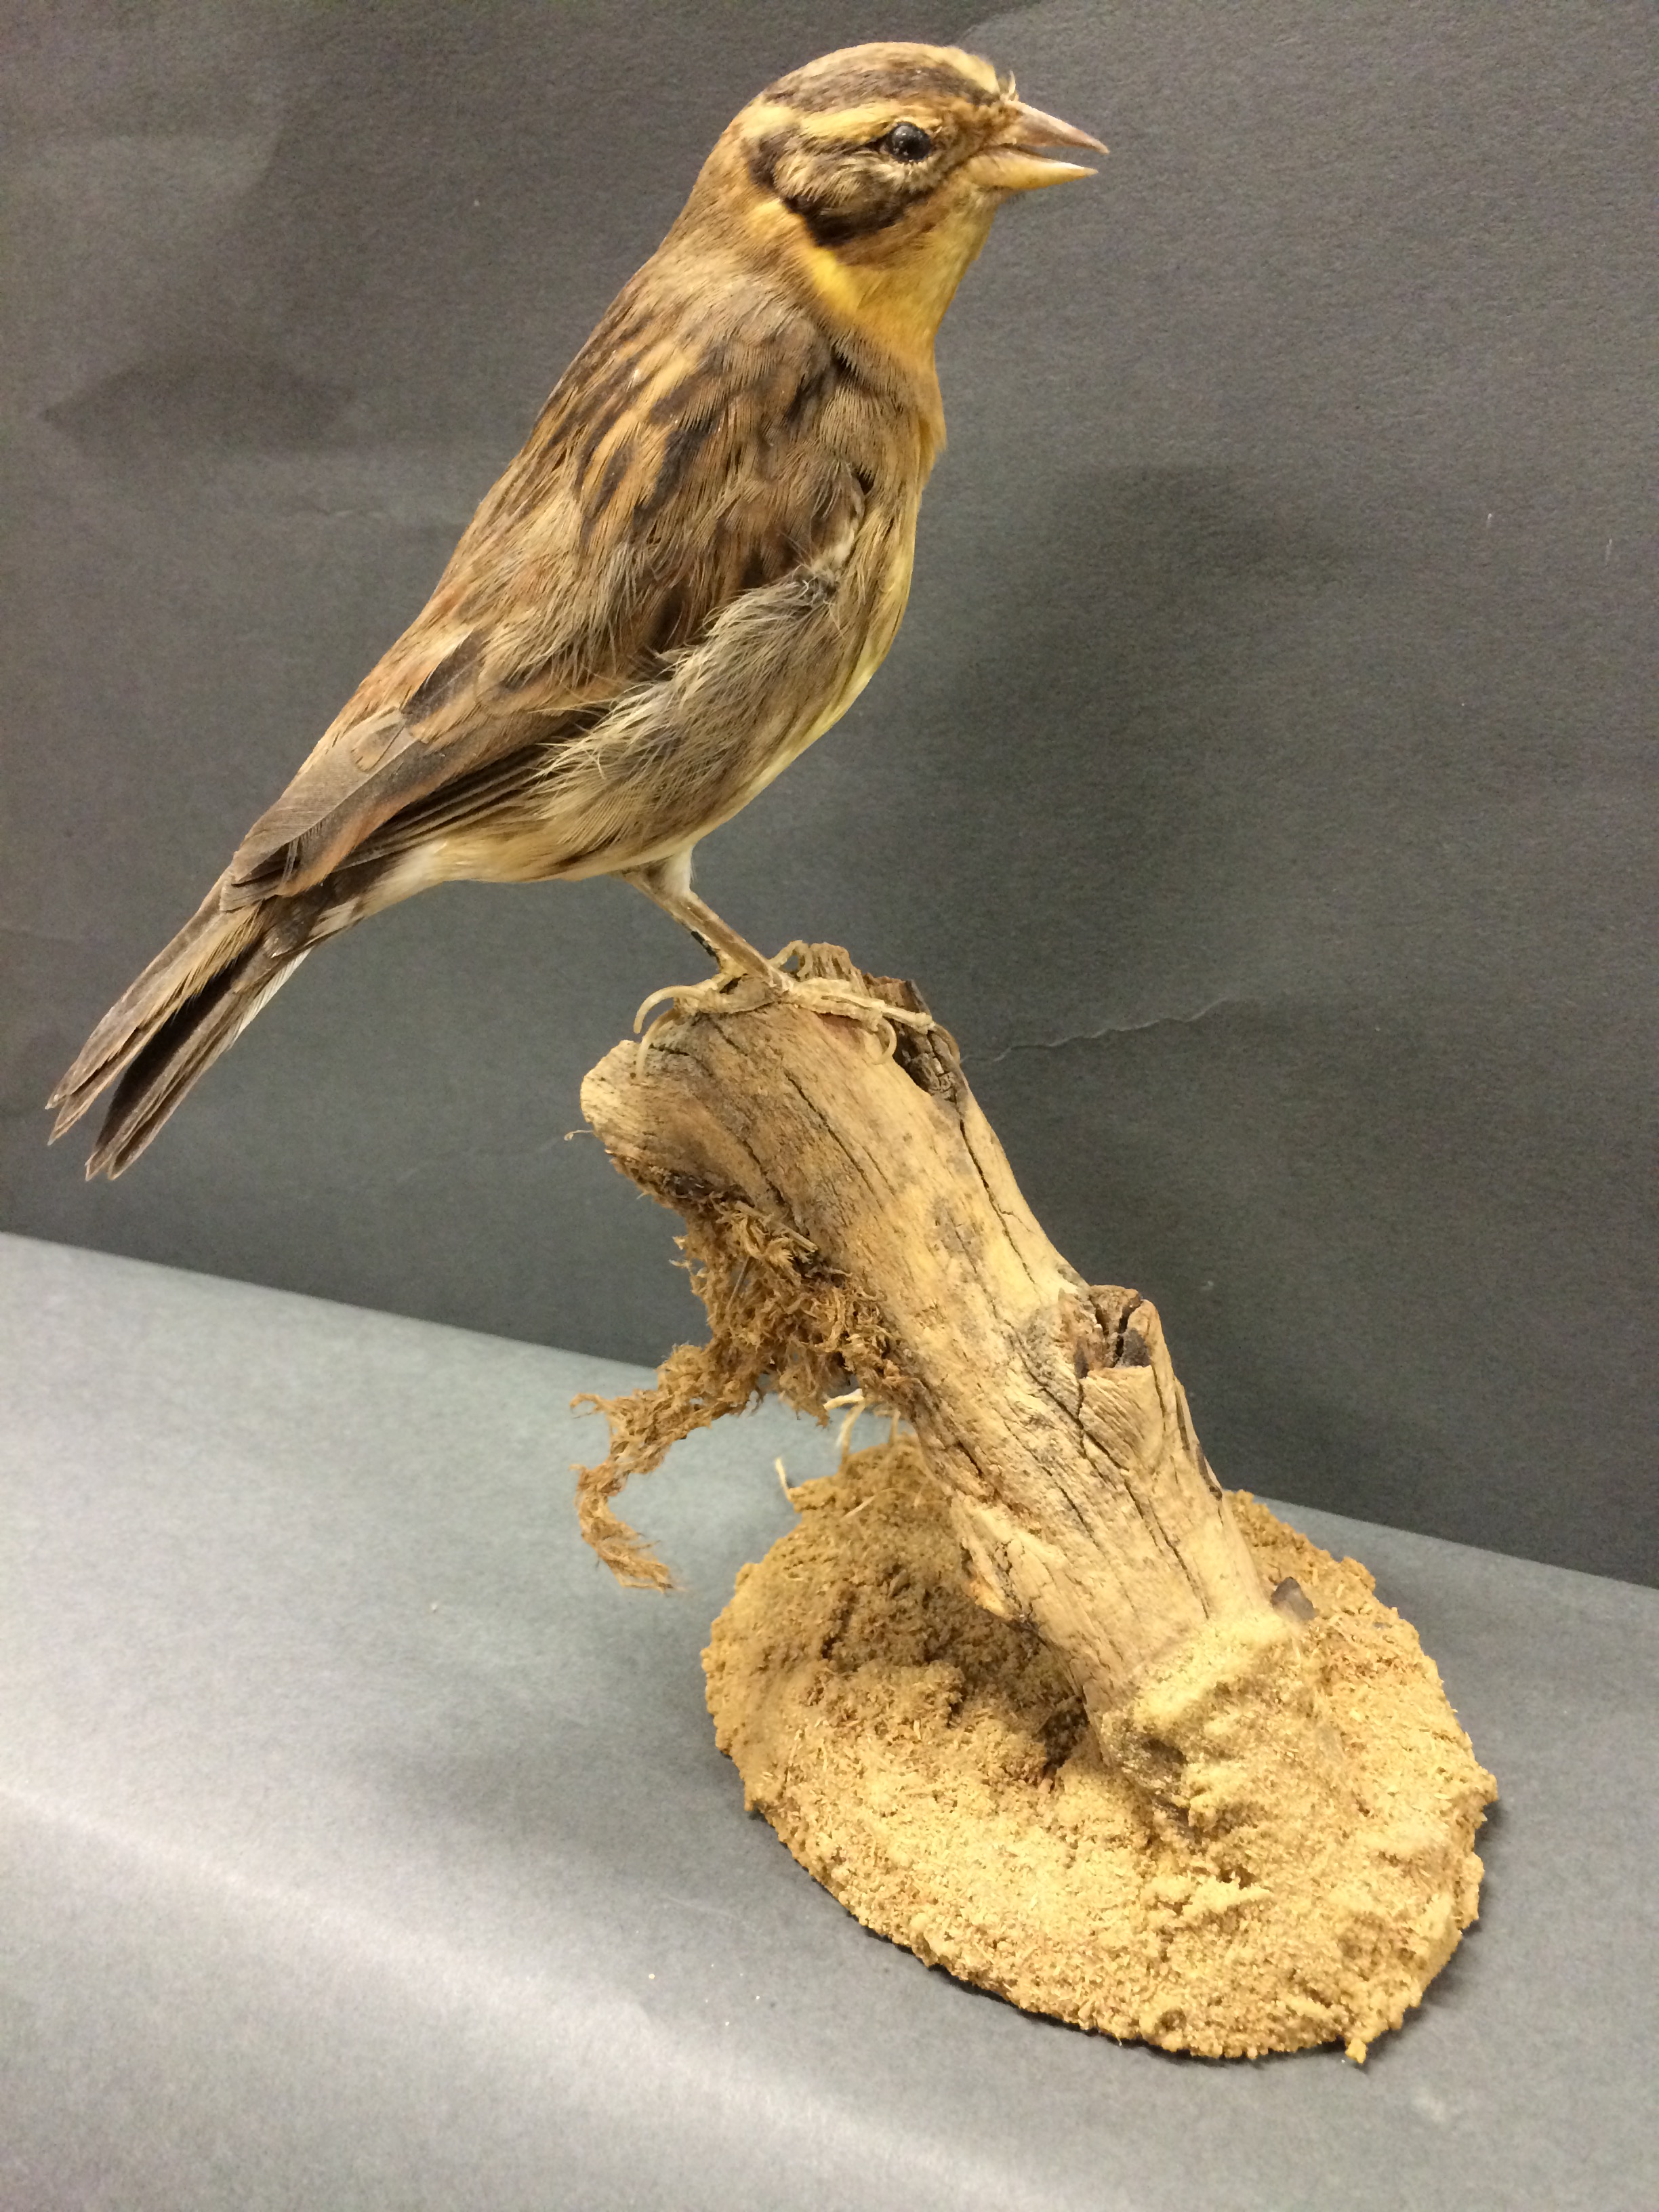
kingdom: Animalia
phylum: Chordata
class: Aves
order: Passeriformes
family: Emberizidae
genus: Emberiza
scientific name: Emberiza aureola
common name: Yellow-breasted bunting
